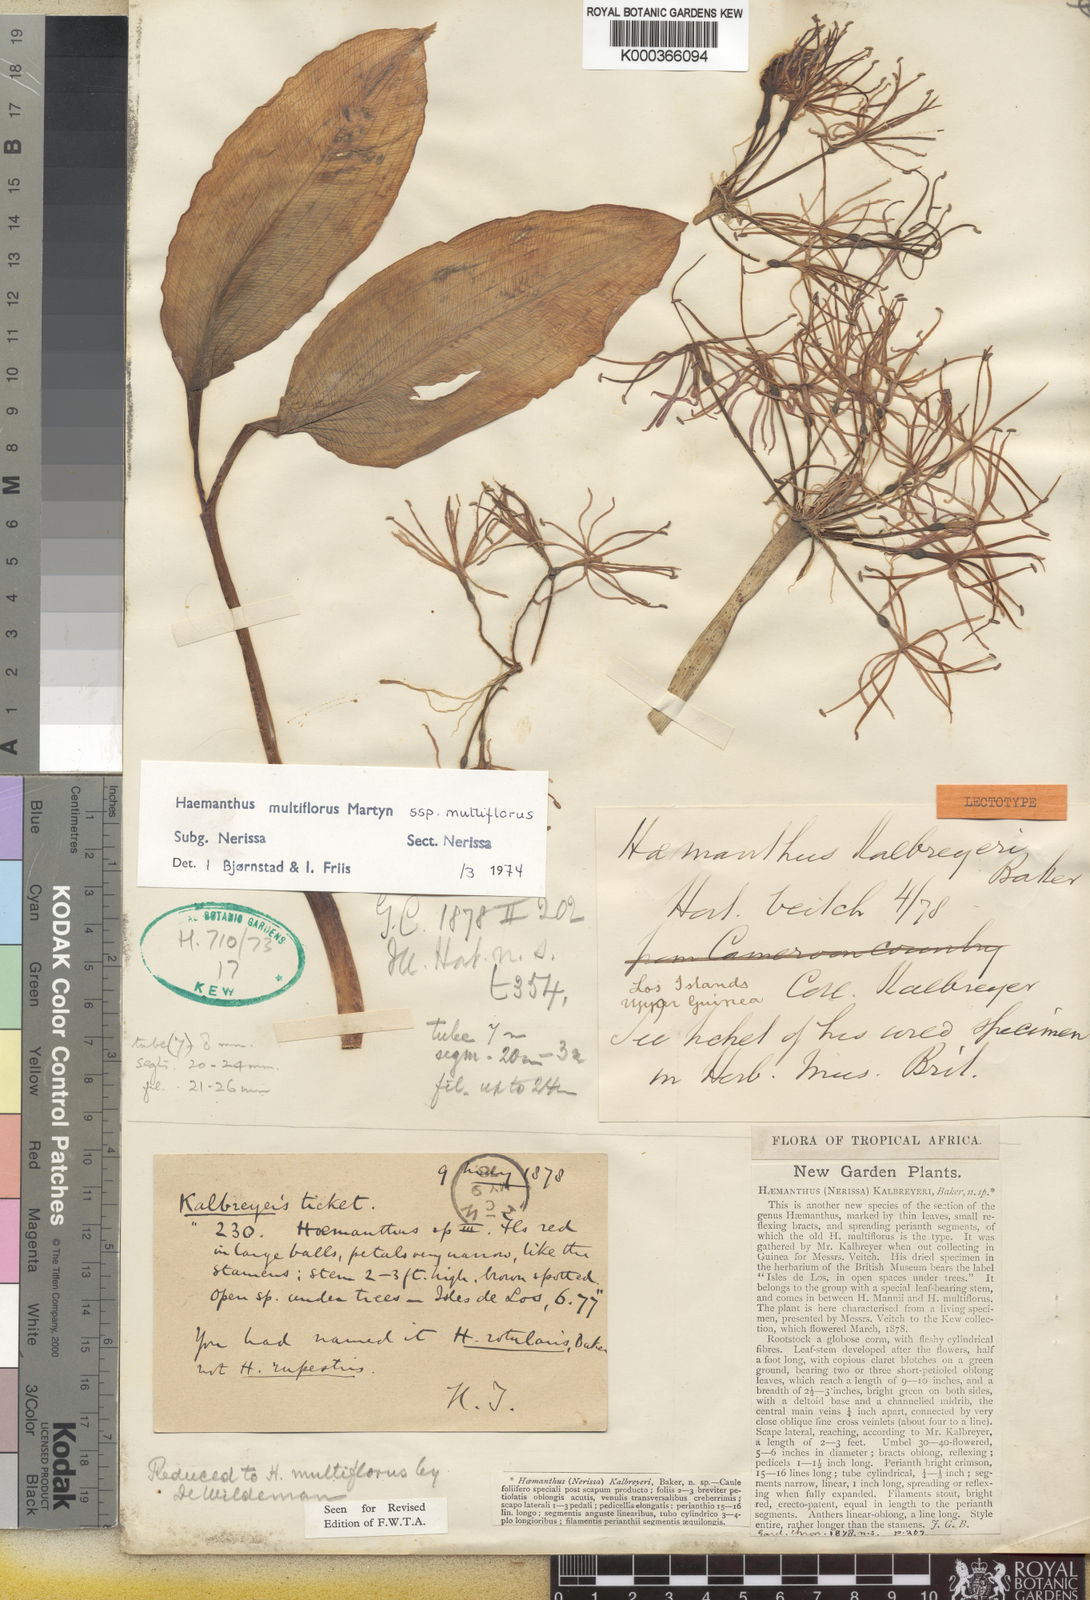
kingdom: Plantae
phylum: Tracheophyta
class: Liliopsida
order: Asparagales
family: Amaryllidaceae
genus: Scadoxus
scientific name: Scadoxus multiflorus
